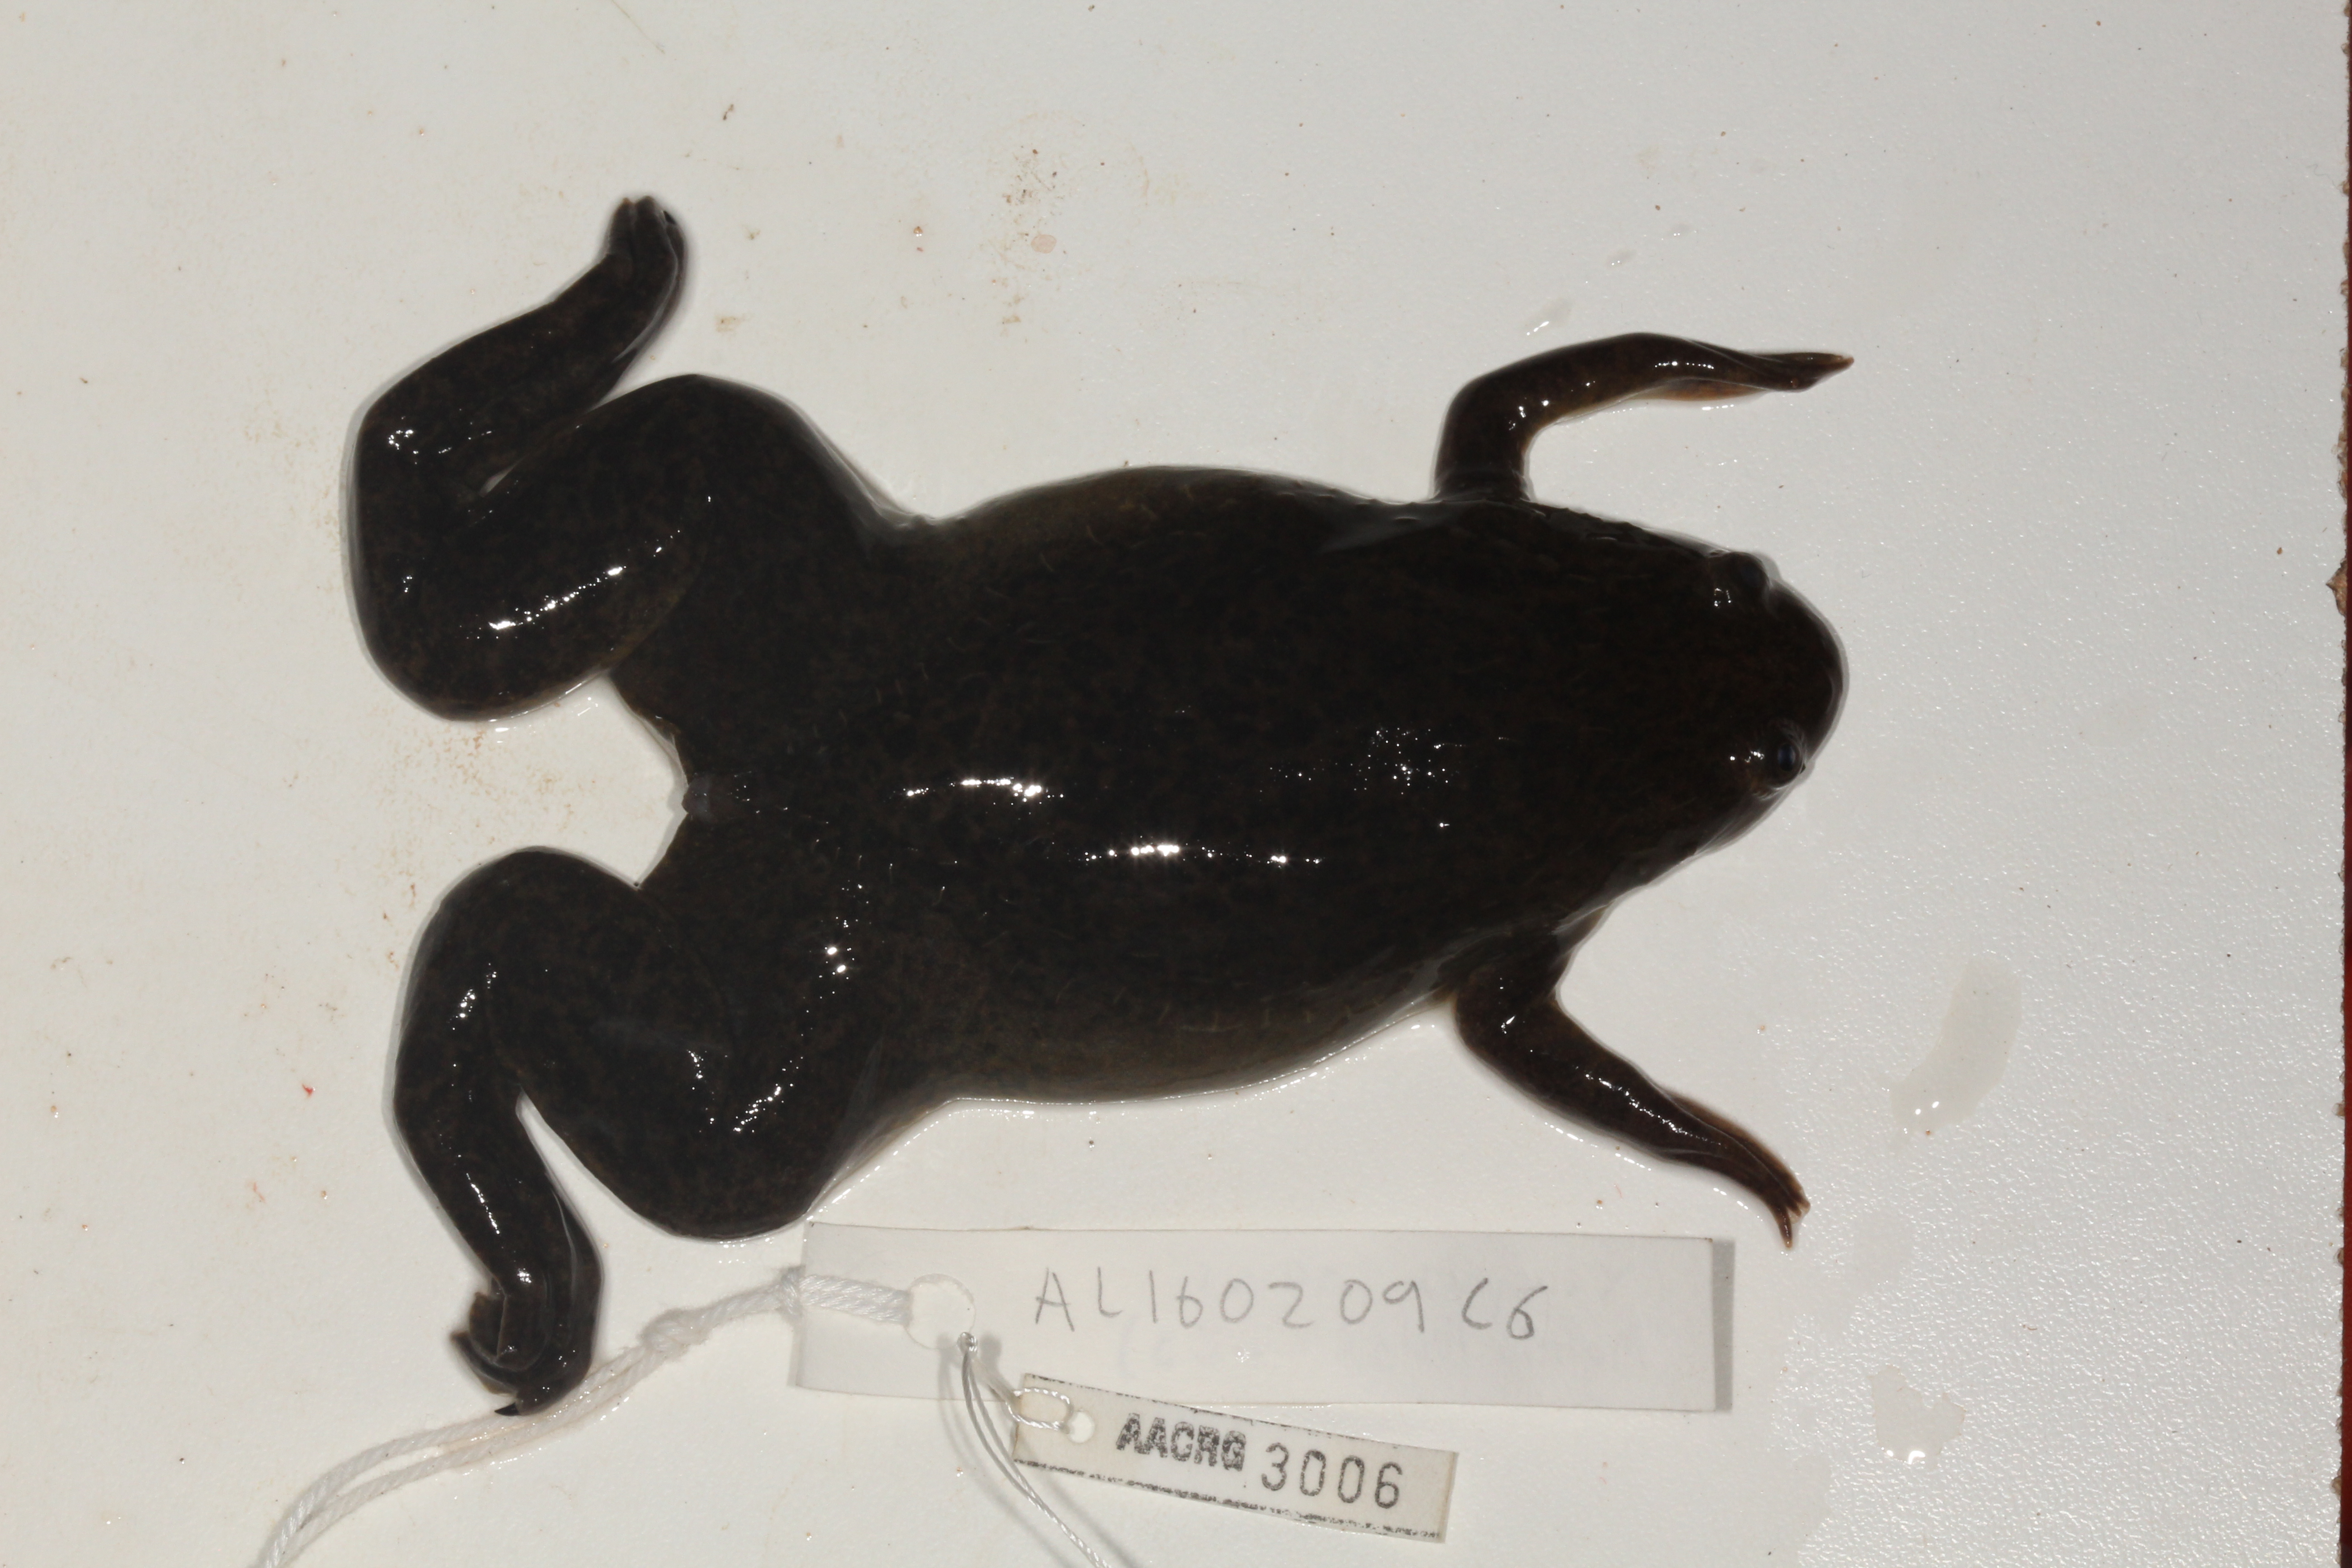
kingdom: Animalia
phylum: Chordata
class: Amphibia
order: Anura
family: Pipidae
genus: Xenopus
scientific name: Xenopus laevis
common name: African clawed frog
